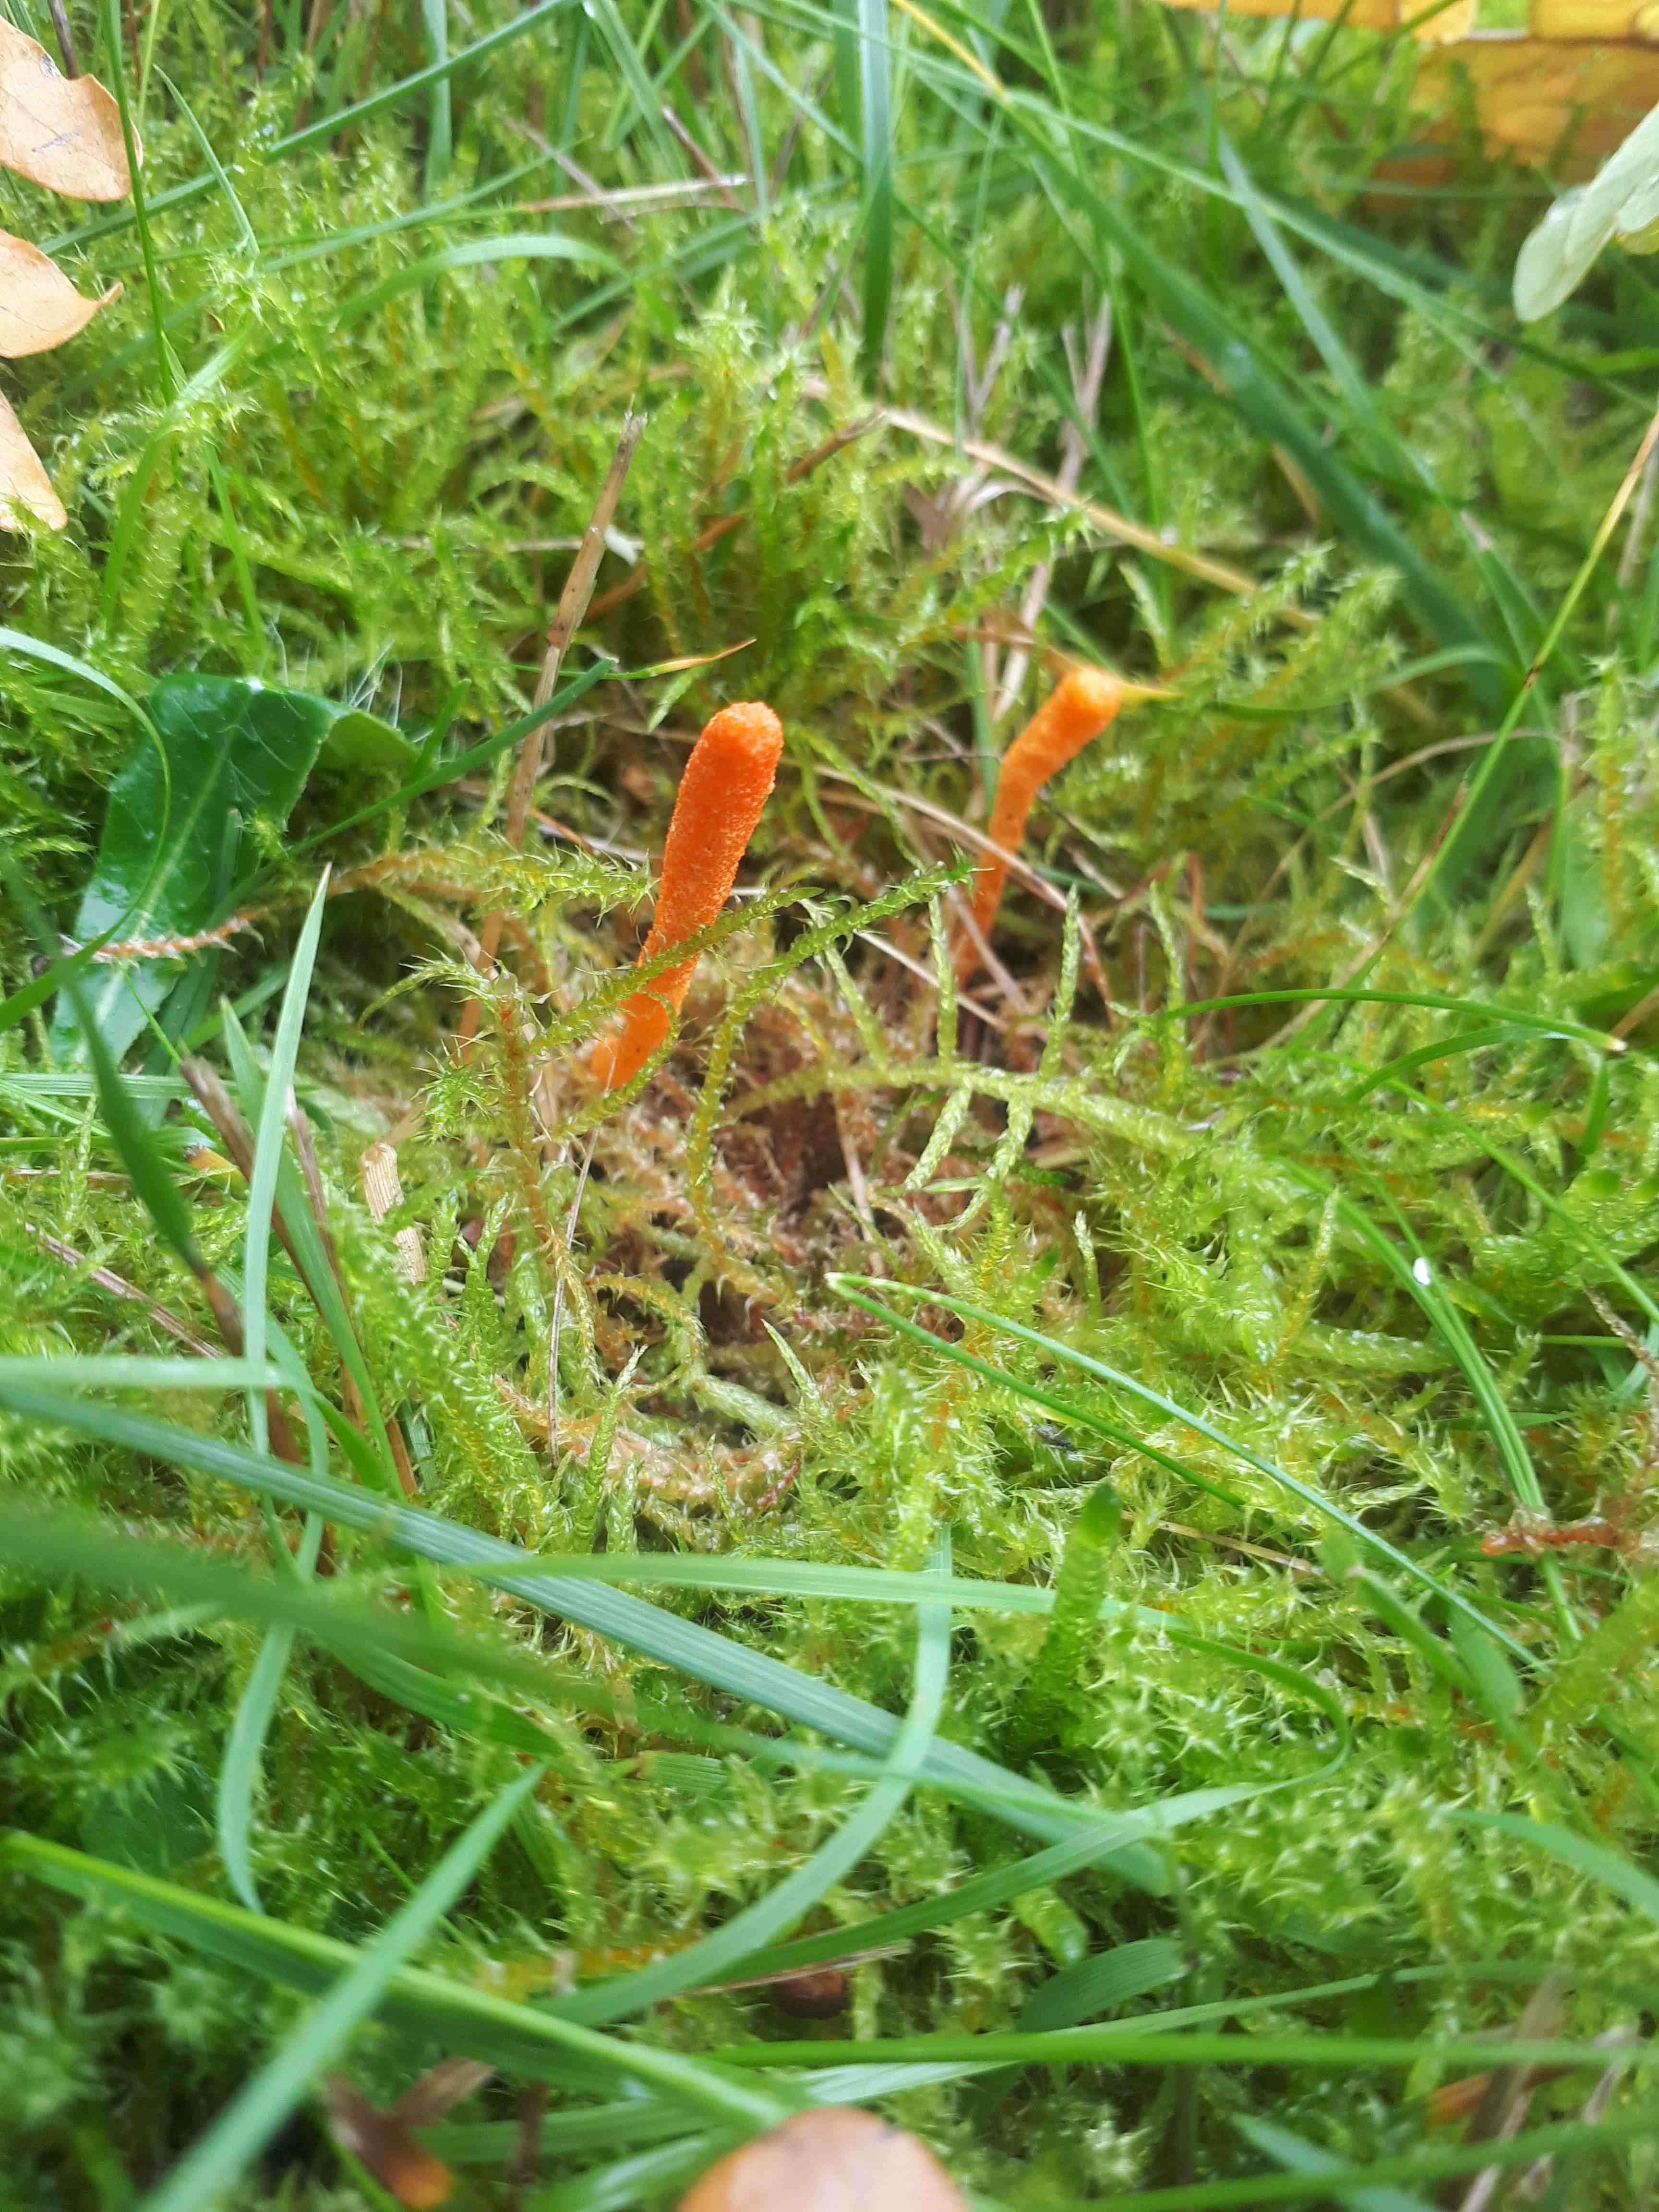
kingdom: Fungi
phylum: Ascomycota
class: Sordariomycetes
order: Hypocreales
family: Cordycipitaceae
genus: Cordyceps
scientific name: Cordyceps militaris
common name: puppe-snyltekølle
